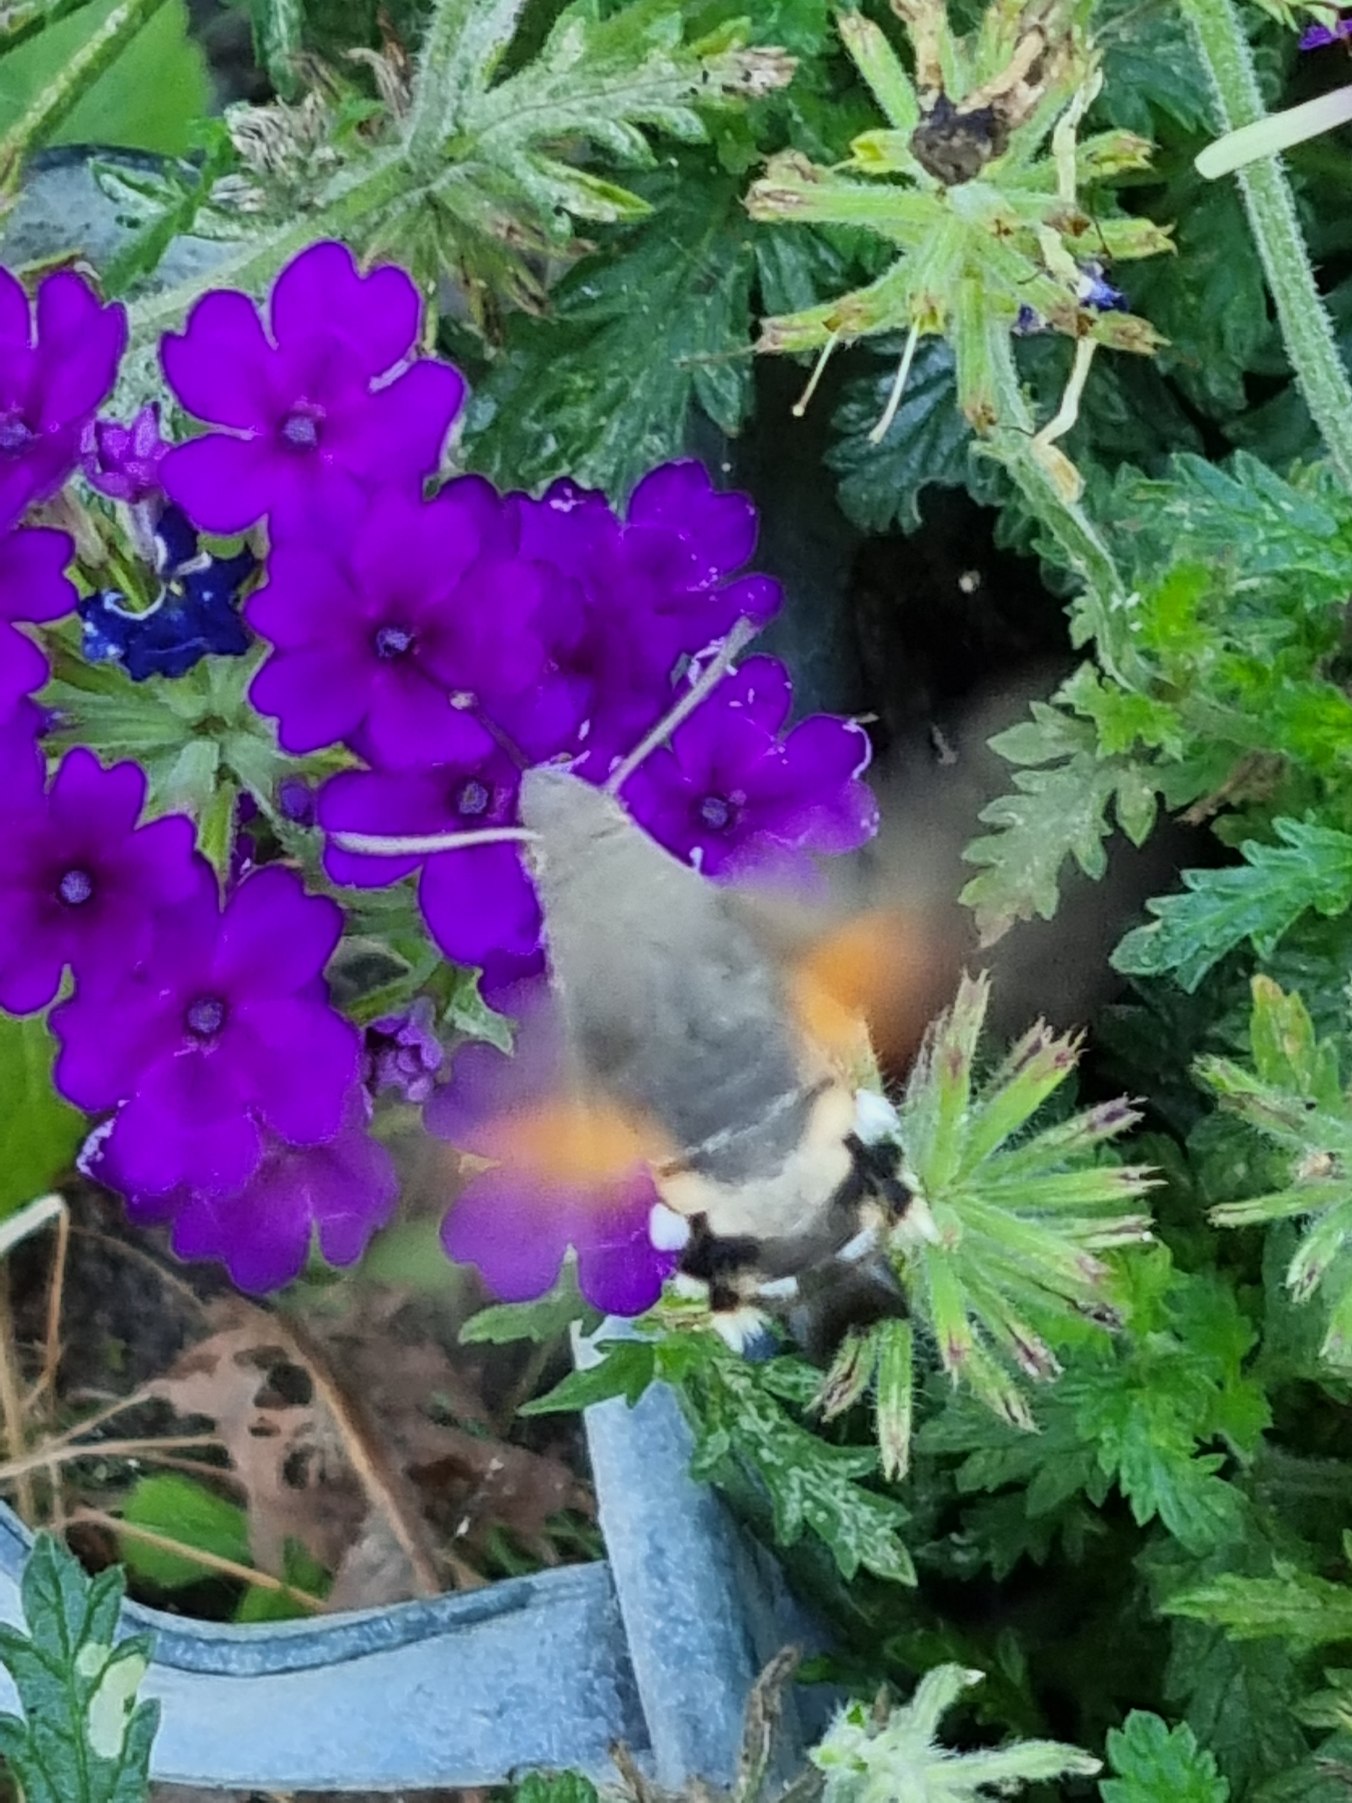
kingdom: Animalia
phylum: Arthropoda
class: Insecta
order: Lepidoptera
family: Sphingidae
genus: Macroglossum
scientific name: Macroglossum stellatarum
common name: Duehale
